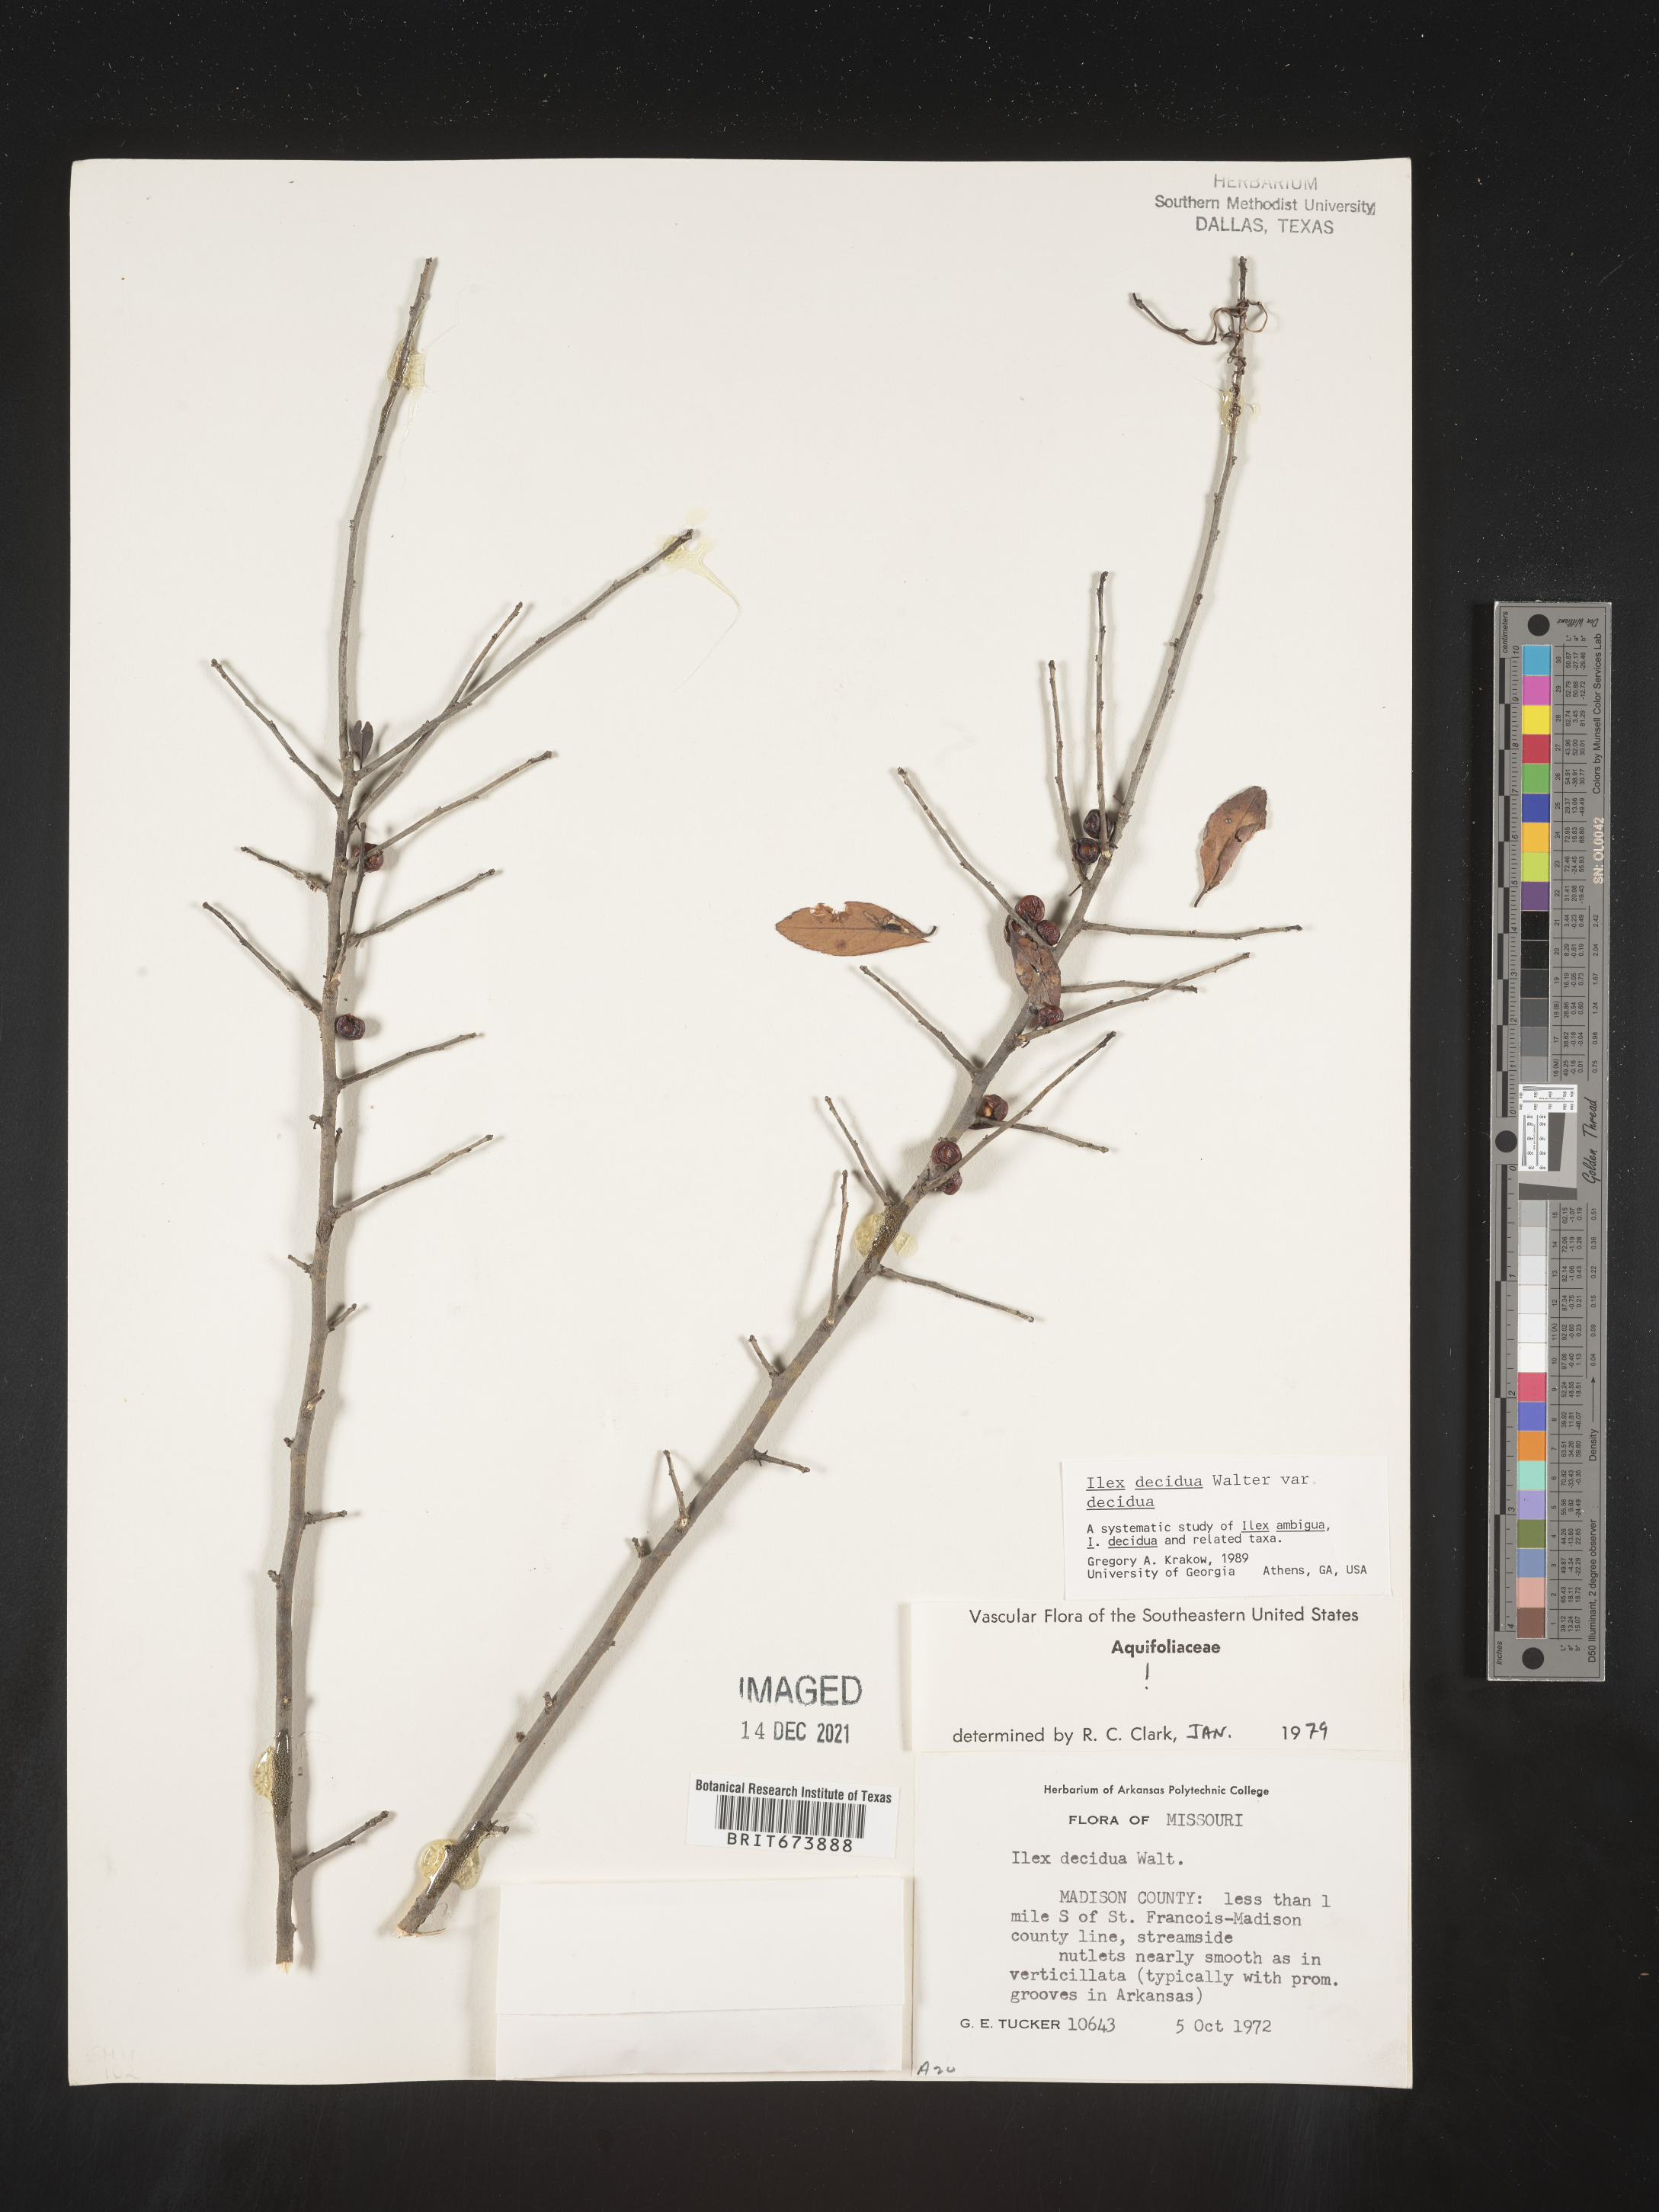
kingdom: Plantae
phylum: Tracheophyta
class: Magnoliopsida
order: Aquifoliales
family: Aquifoliaceae
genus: Ilex
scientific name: Ilex decidua
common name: Possum-haw
